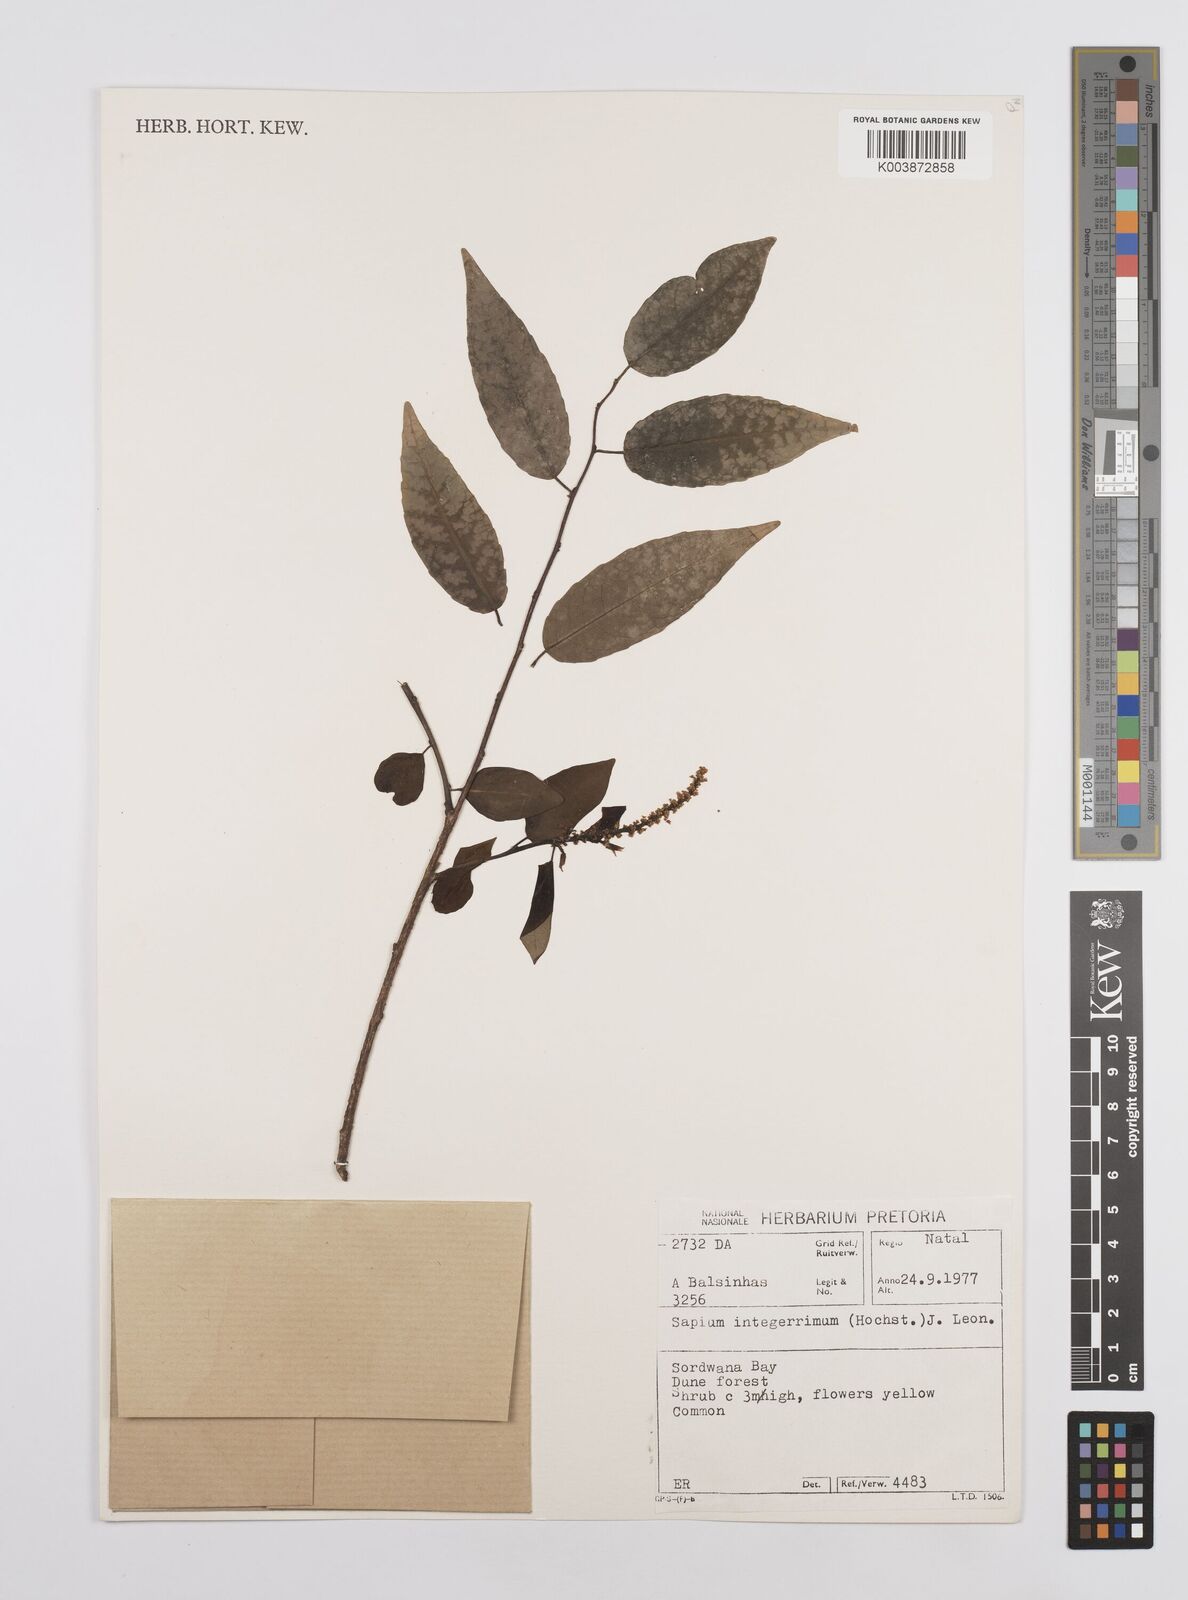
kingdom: Plantae
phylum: Tracheophyta
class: Magnoliopsida
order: Malpighiales
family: Euphorbiaceae
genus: Sclerocroton
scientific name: Sclerocroton integerrimus
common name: Duiker berry
